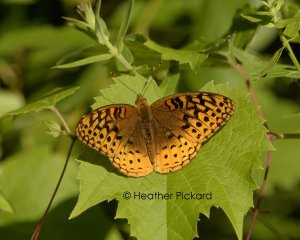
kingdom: Animalia
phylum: Arthropoda
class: Insecta
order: Lepidoptera
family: Nymphalidae
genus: Speyeria
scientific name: Speyeria cybele
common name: Great Spangled Fritillary
